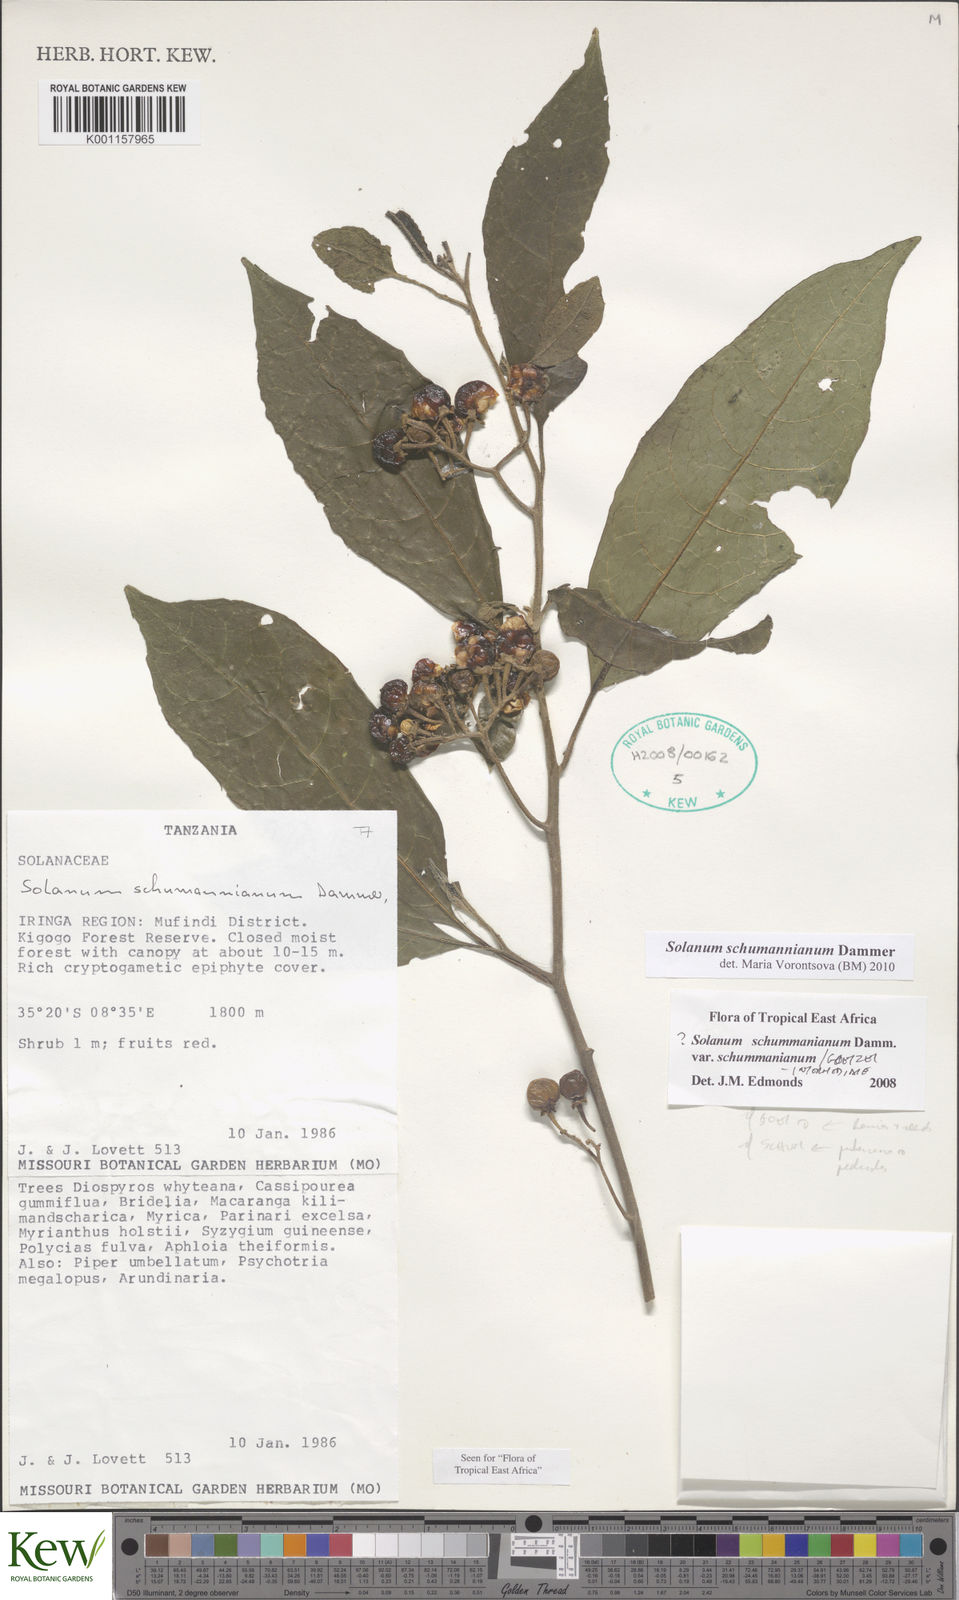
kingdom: Plantae
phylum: Tracheophyta
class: Magnoliopsida
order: Solanales
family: Solanaceae
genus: Solanum
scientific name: Solanum schumannianum
